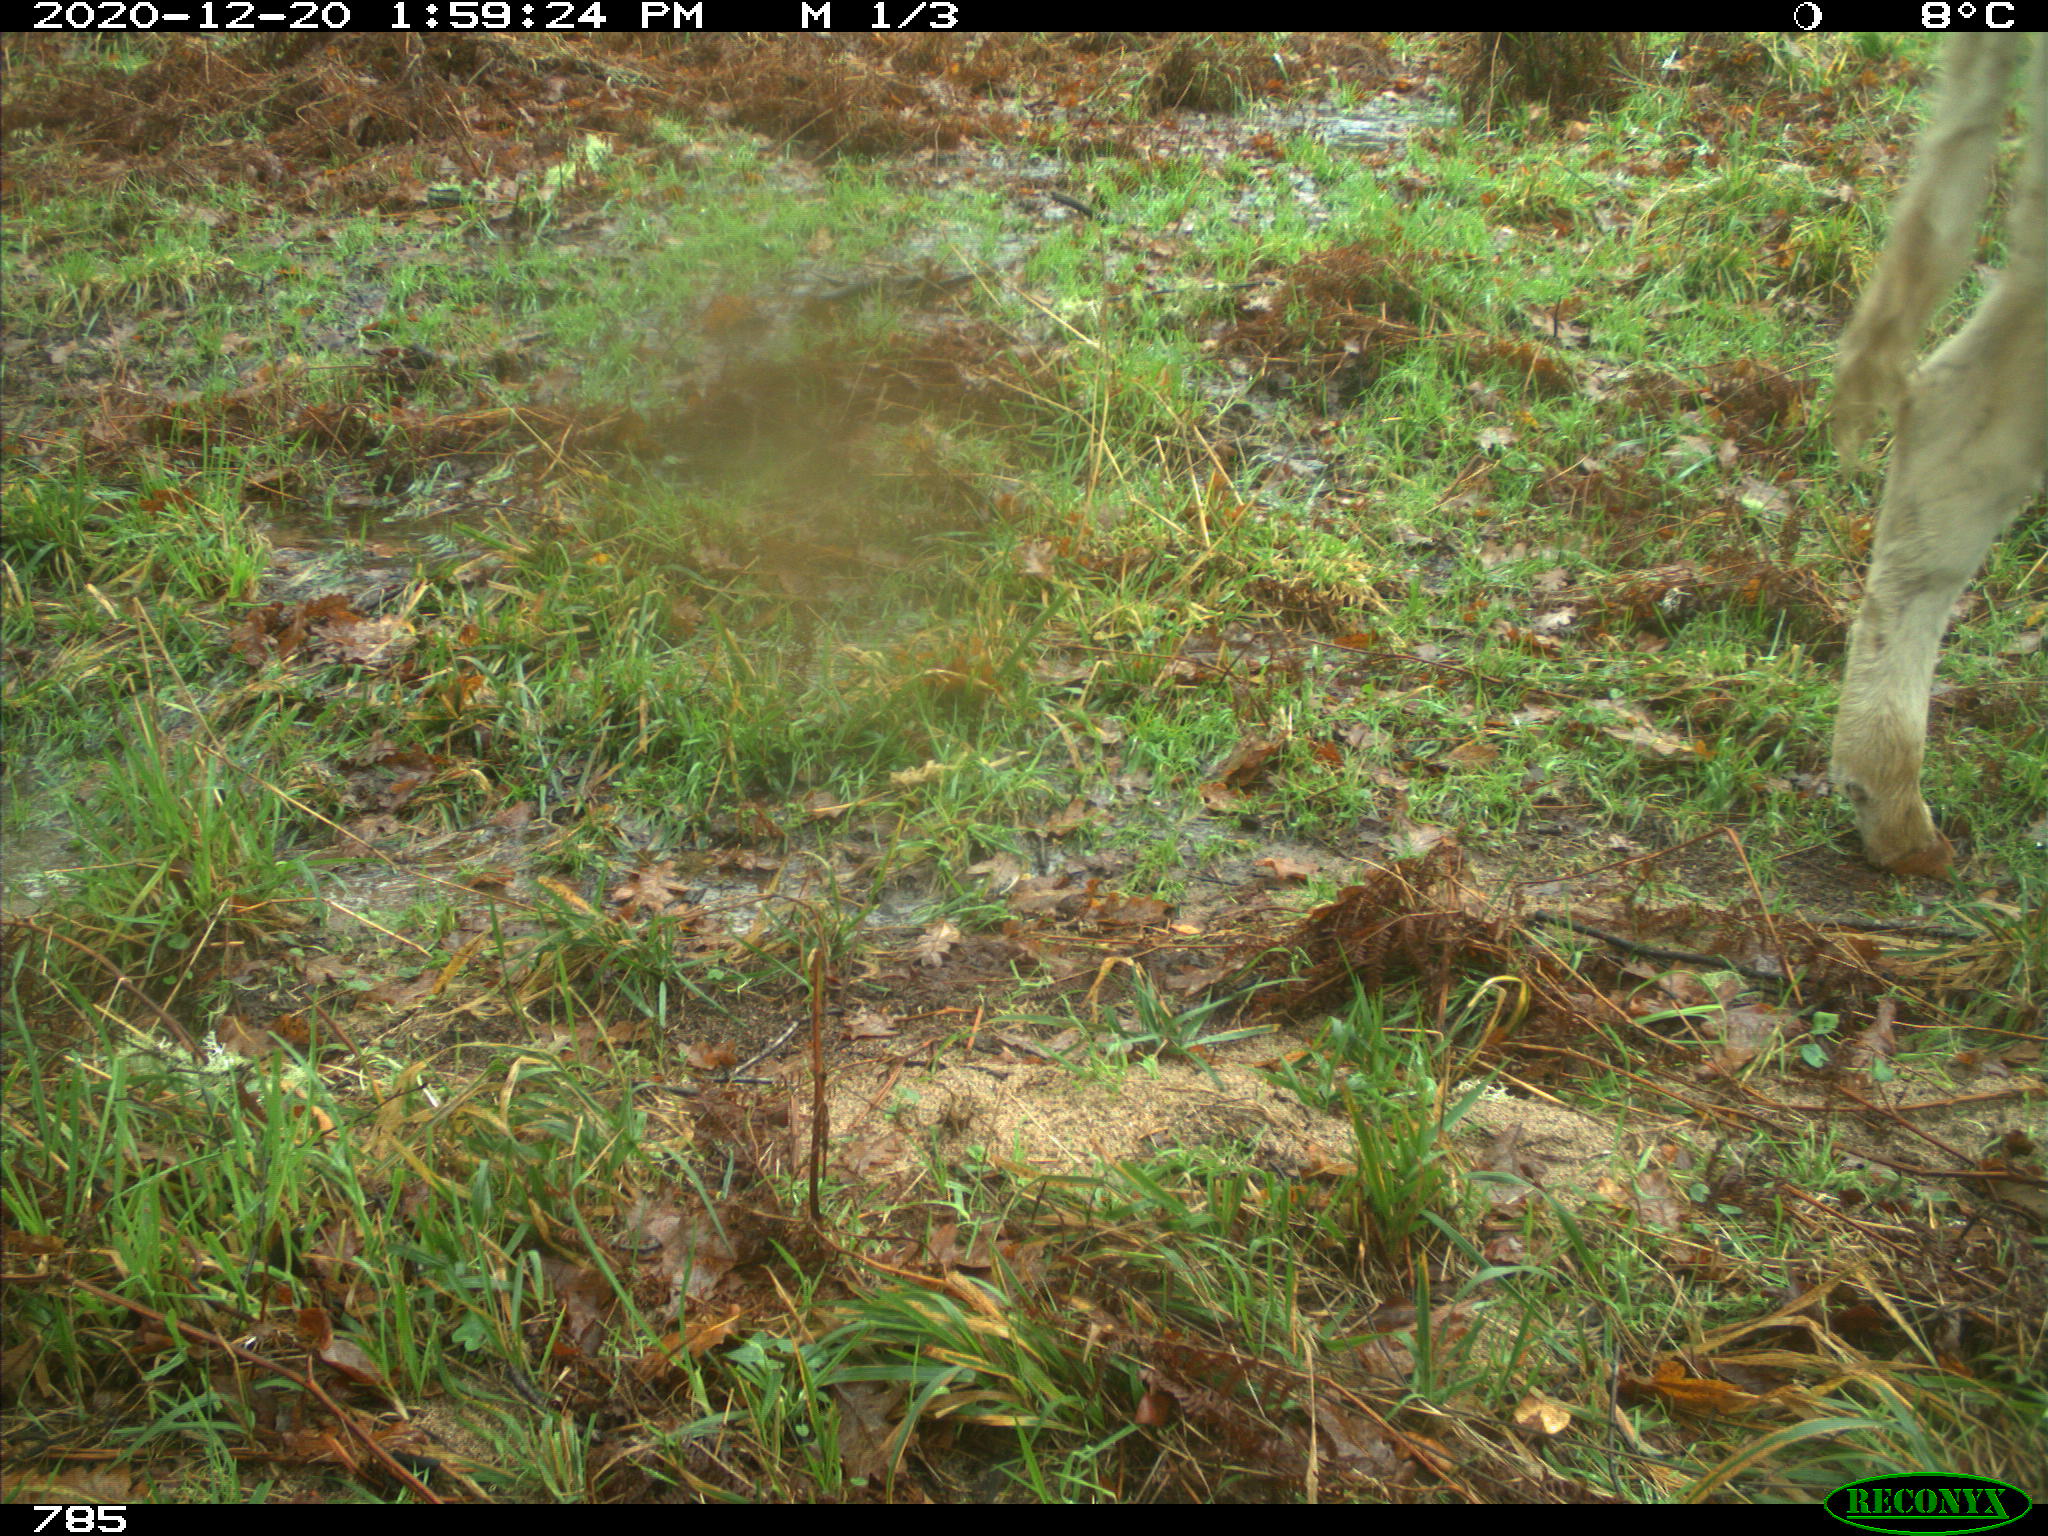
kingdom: Animalia
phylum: Chordata
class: Mammalia
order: Artiodactyla
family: Bovidae
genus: Bos
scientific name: Bos taurus
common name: Domesticated cattle
